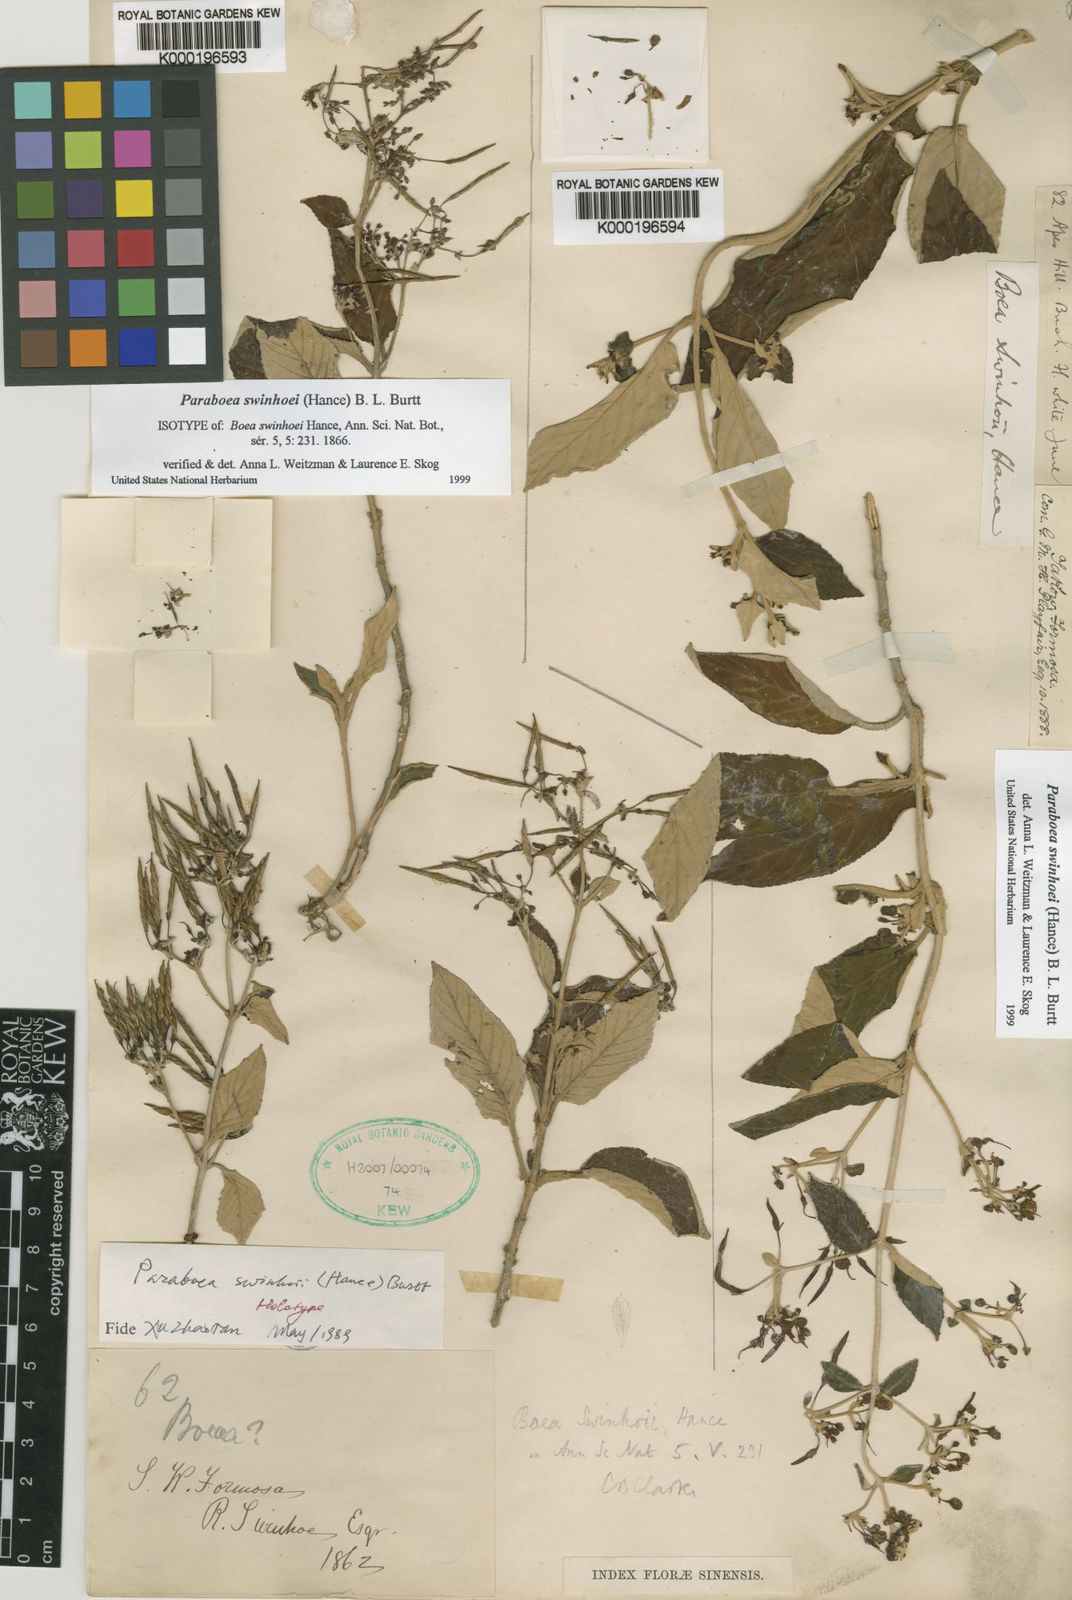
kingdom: Plantae
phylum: Tracheophyta
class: Magnoliopsida
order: Lamiales
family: Gesneriaceae
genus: Paraboea
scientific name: Paraboea swinhoei
